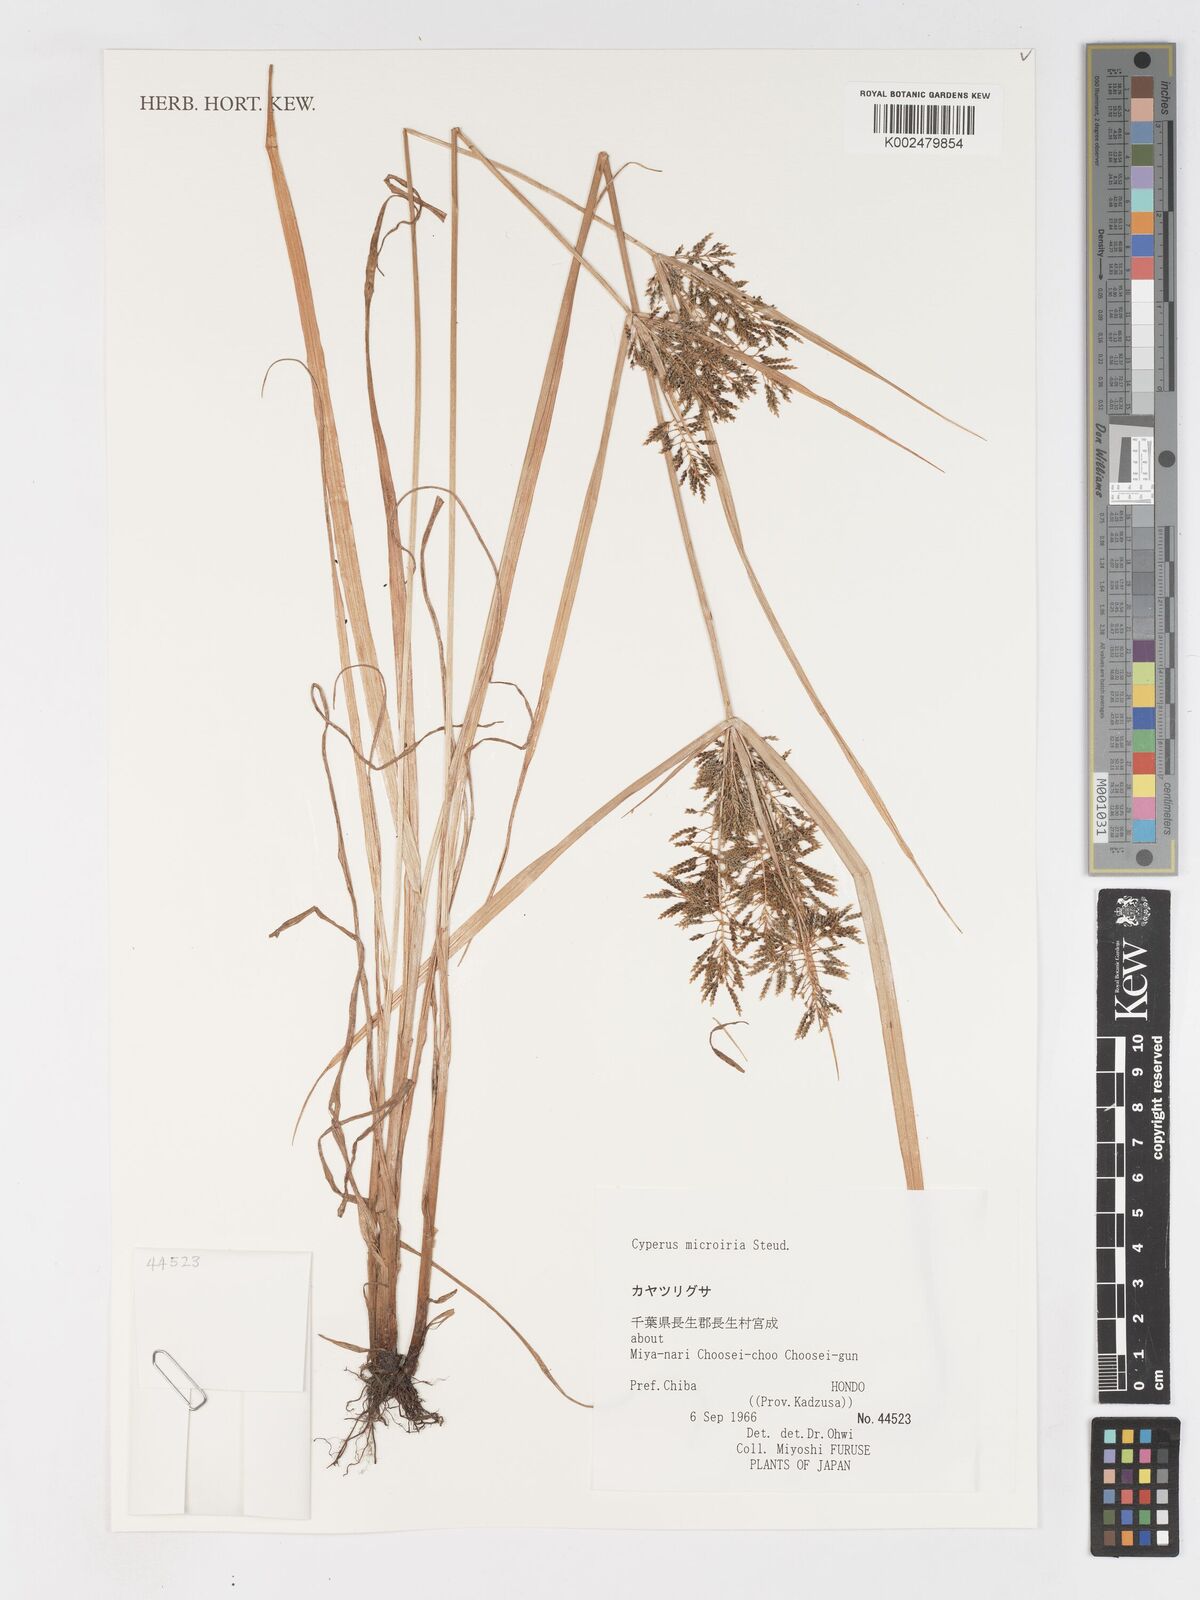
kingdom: Plantae
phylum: Tracheophyta
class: Liliopsida
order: Poales
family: Cyperaceae
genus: Cyperus
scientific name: Cyperus iria
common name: Ricefield flatsedge
